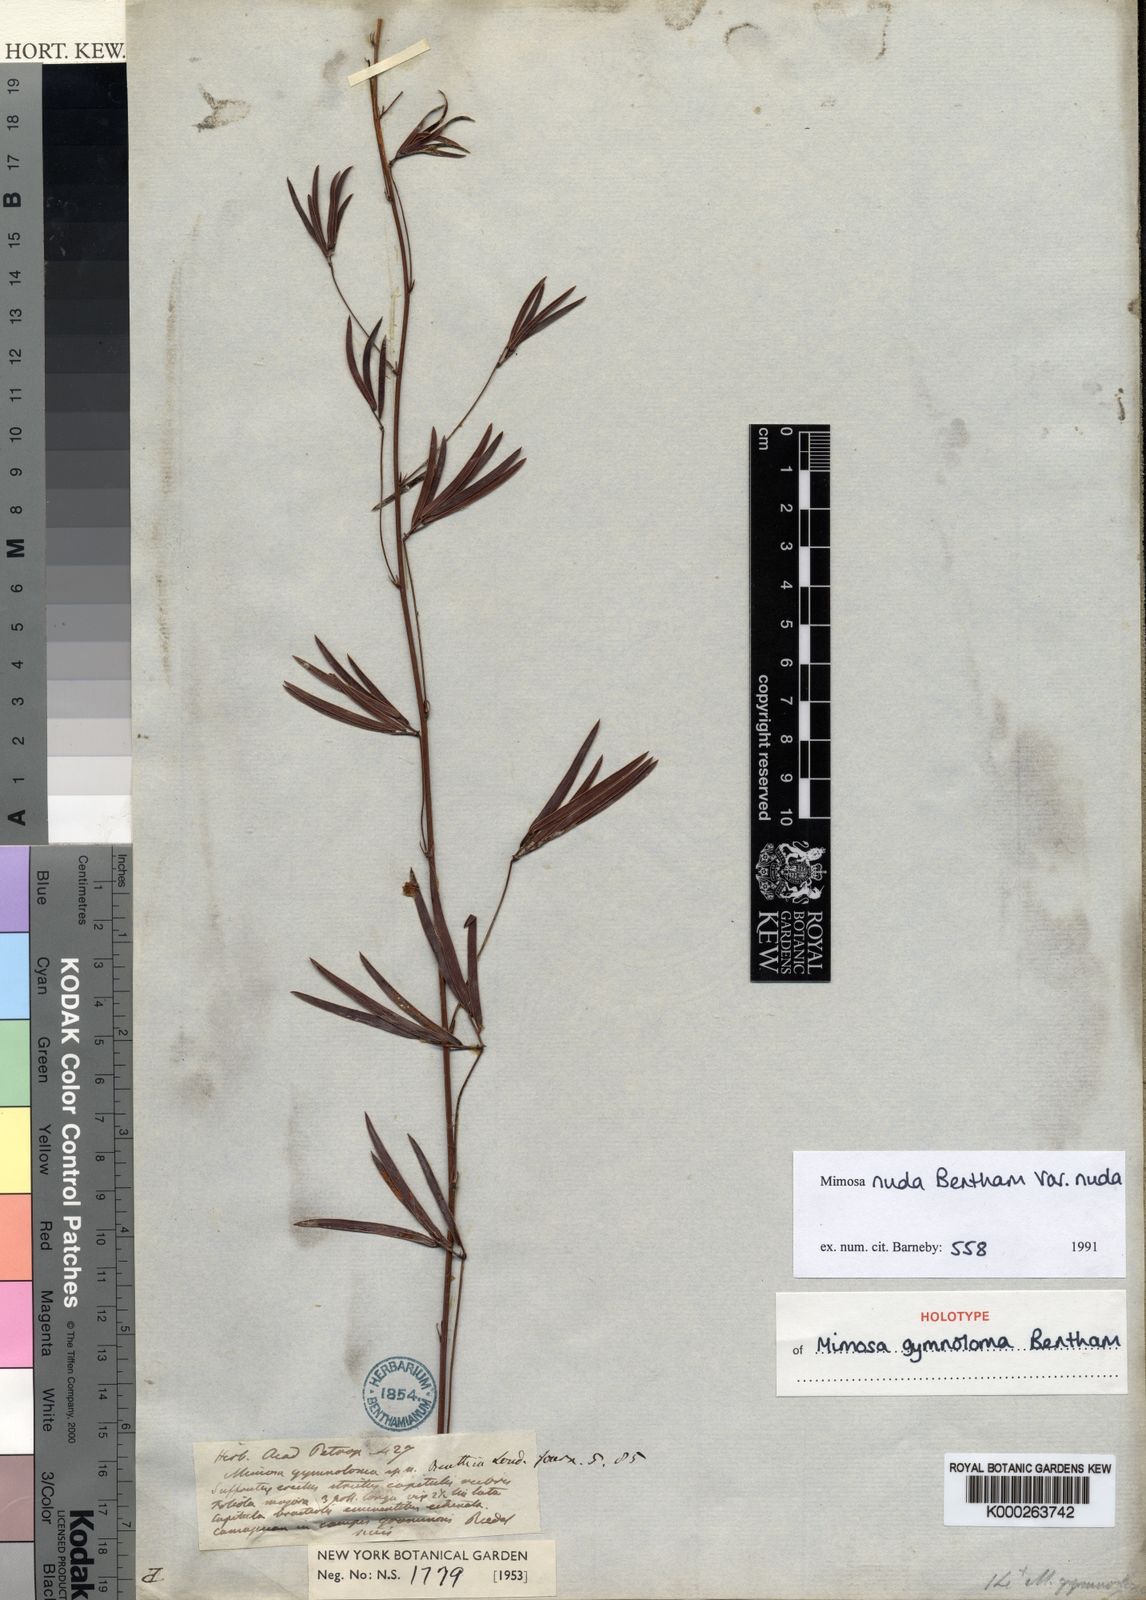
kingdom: Plantae
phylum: Tracheophyta
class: Magnoliopsida
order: Fabales
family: Fabaceae
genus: Mimosa
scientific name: Mimosa debilis
